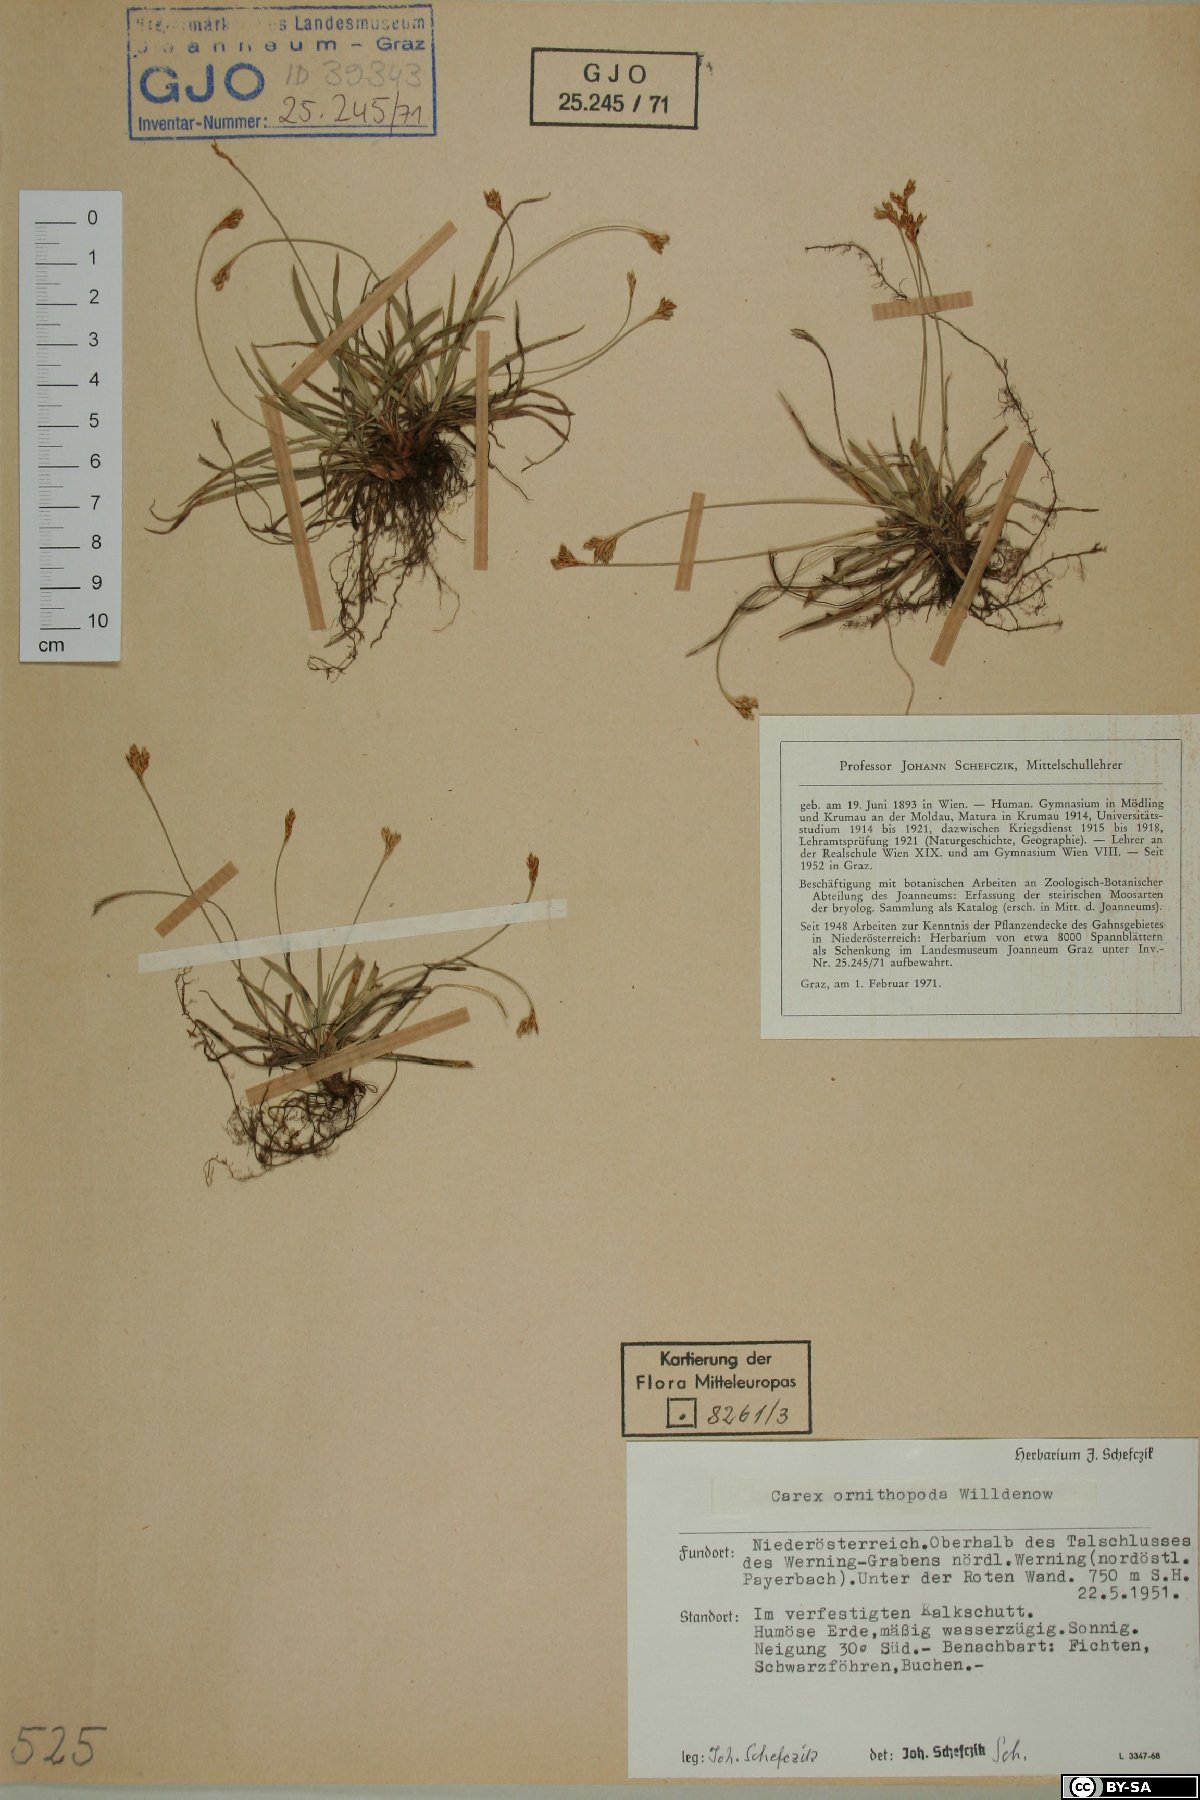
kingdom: Plantae
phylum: Tracheophyta
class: Liliopsida
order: Poales
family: Cyperaceae
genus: Carex
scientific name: Carex ornithopoda
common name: Bird's-foot sedge
